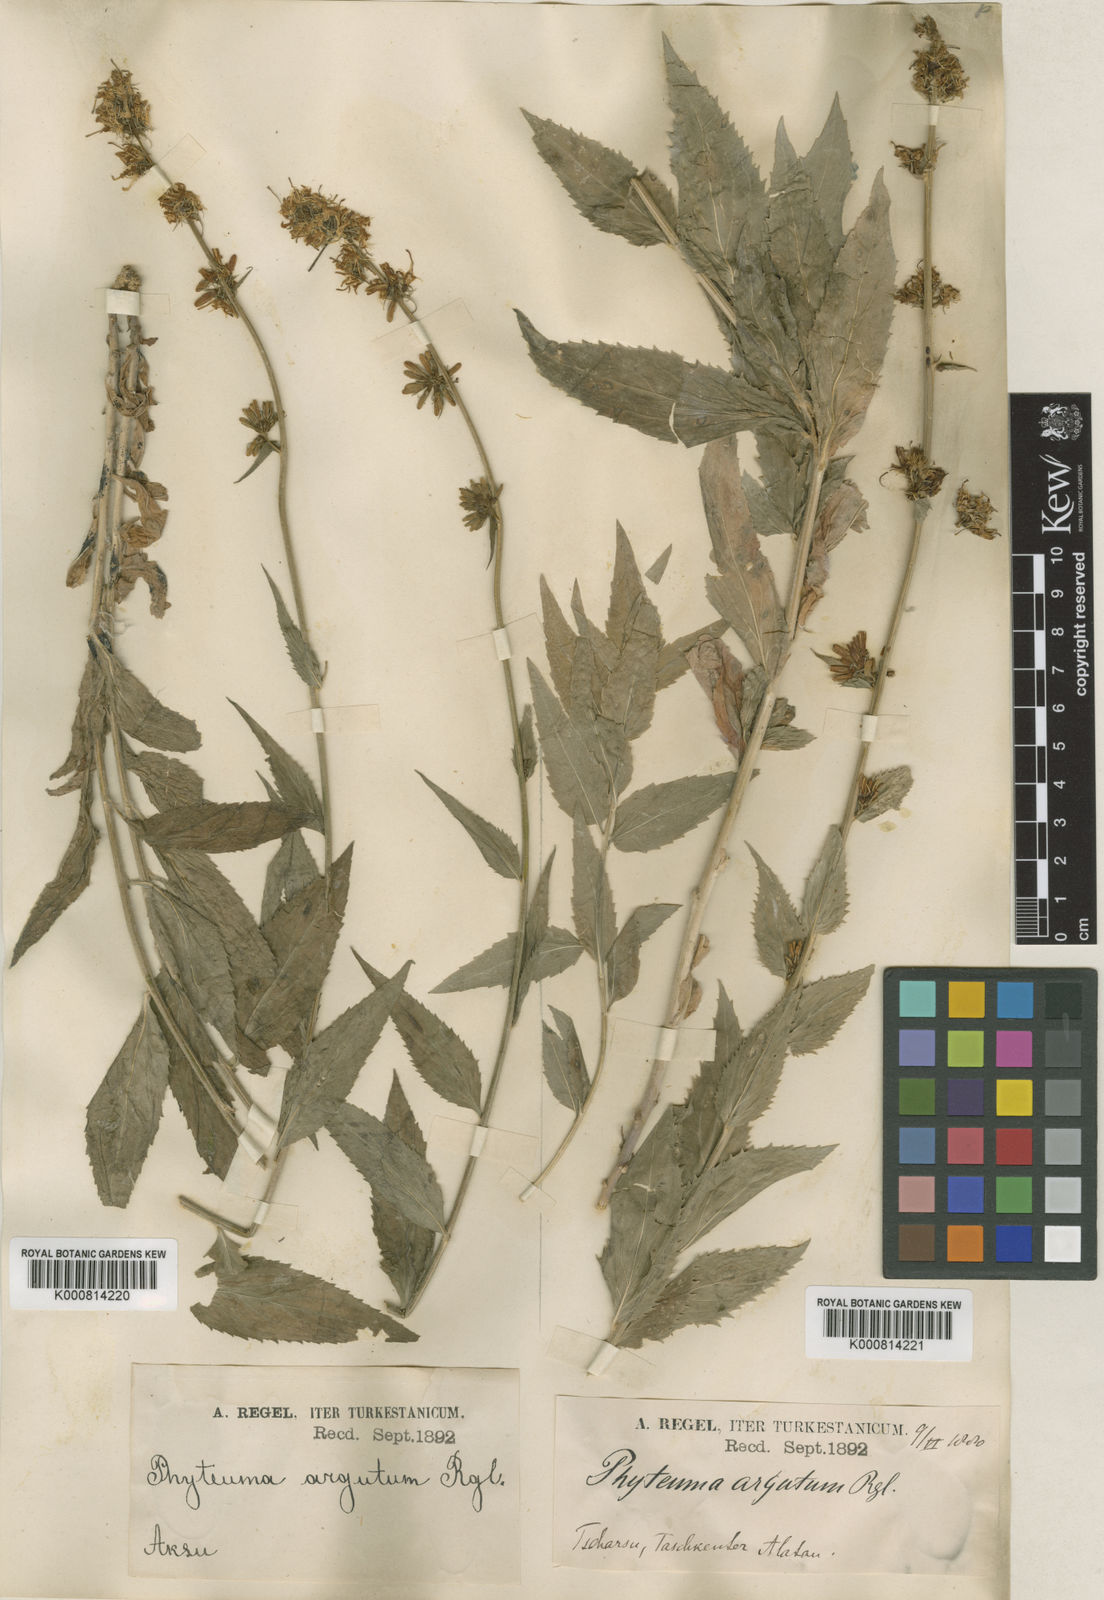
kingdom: Plantae
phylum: Tracheophyta
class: Magnoliopsida
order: Asterales
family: Campanulaceae
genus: Asyneuma
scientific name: Asyneuma argutum
